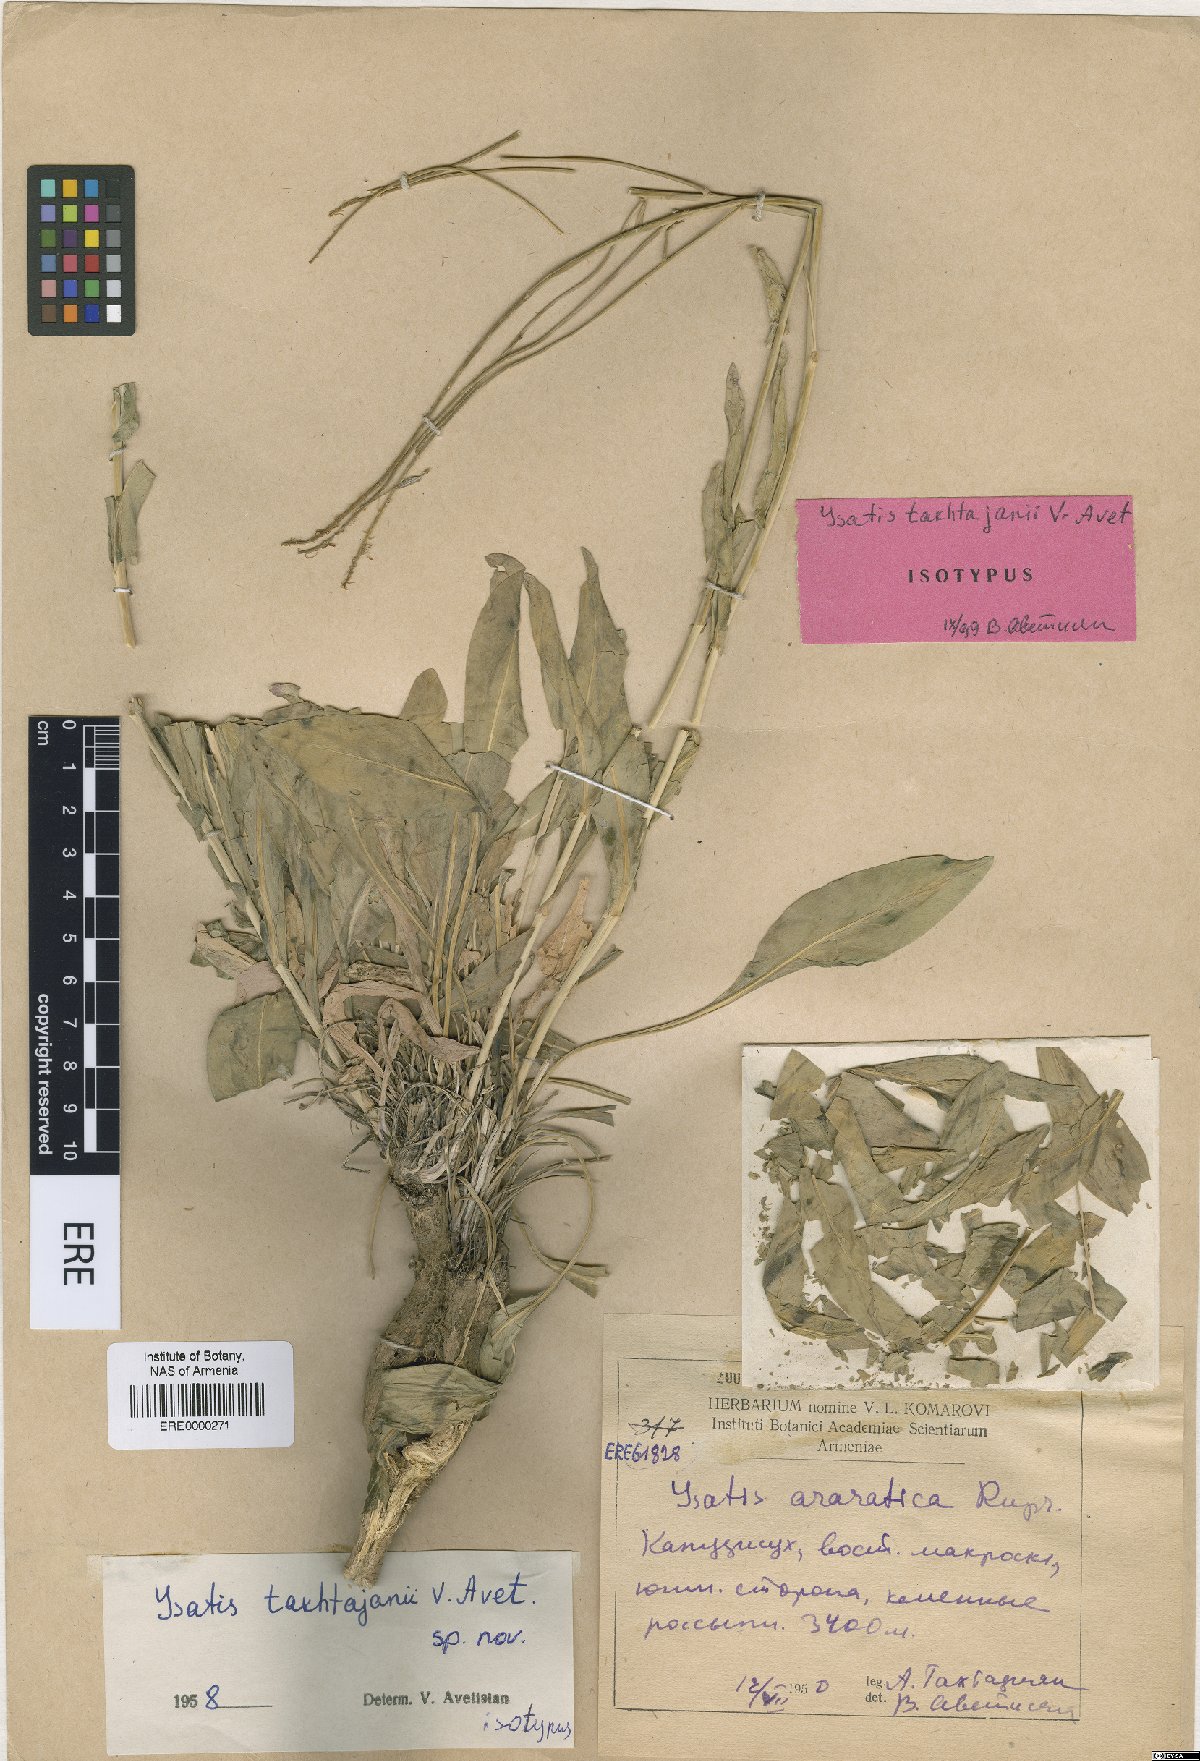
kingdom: Plantae
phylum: Tracheophyta
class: Magnoliopsida
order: Brassicales
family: Brassicaceae
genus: Isatis
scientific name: Isatis takhtajanii
